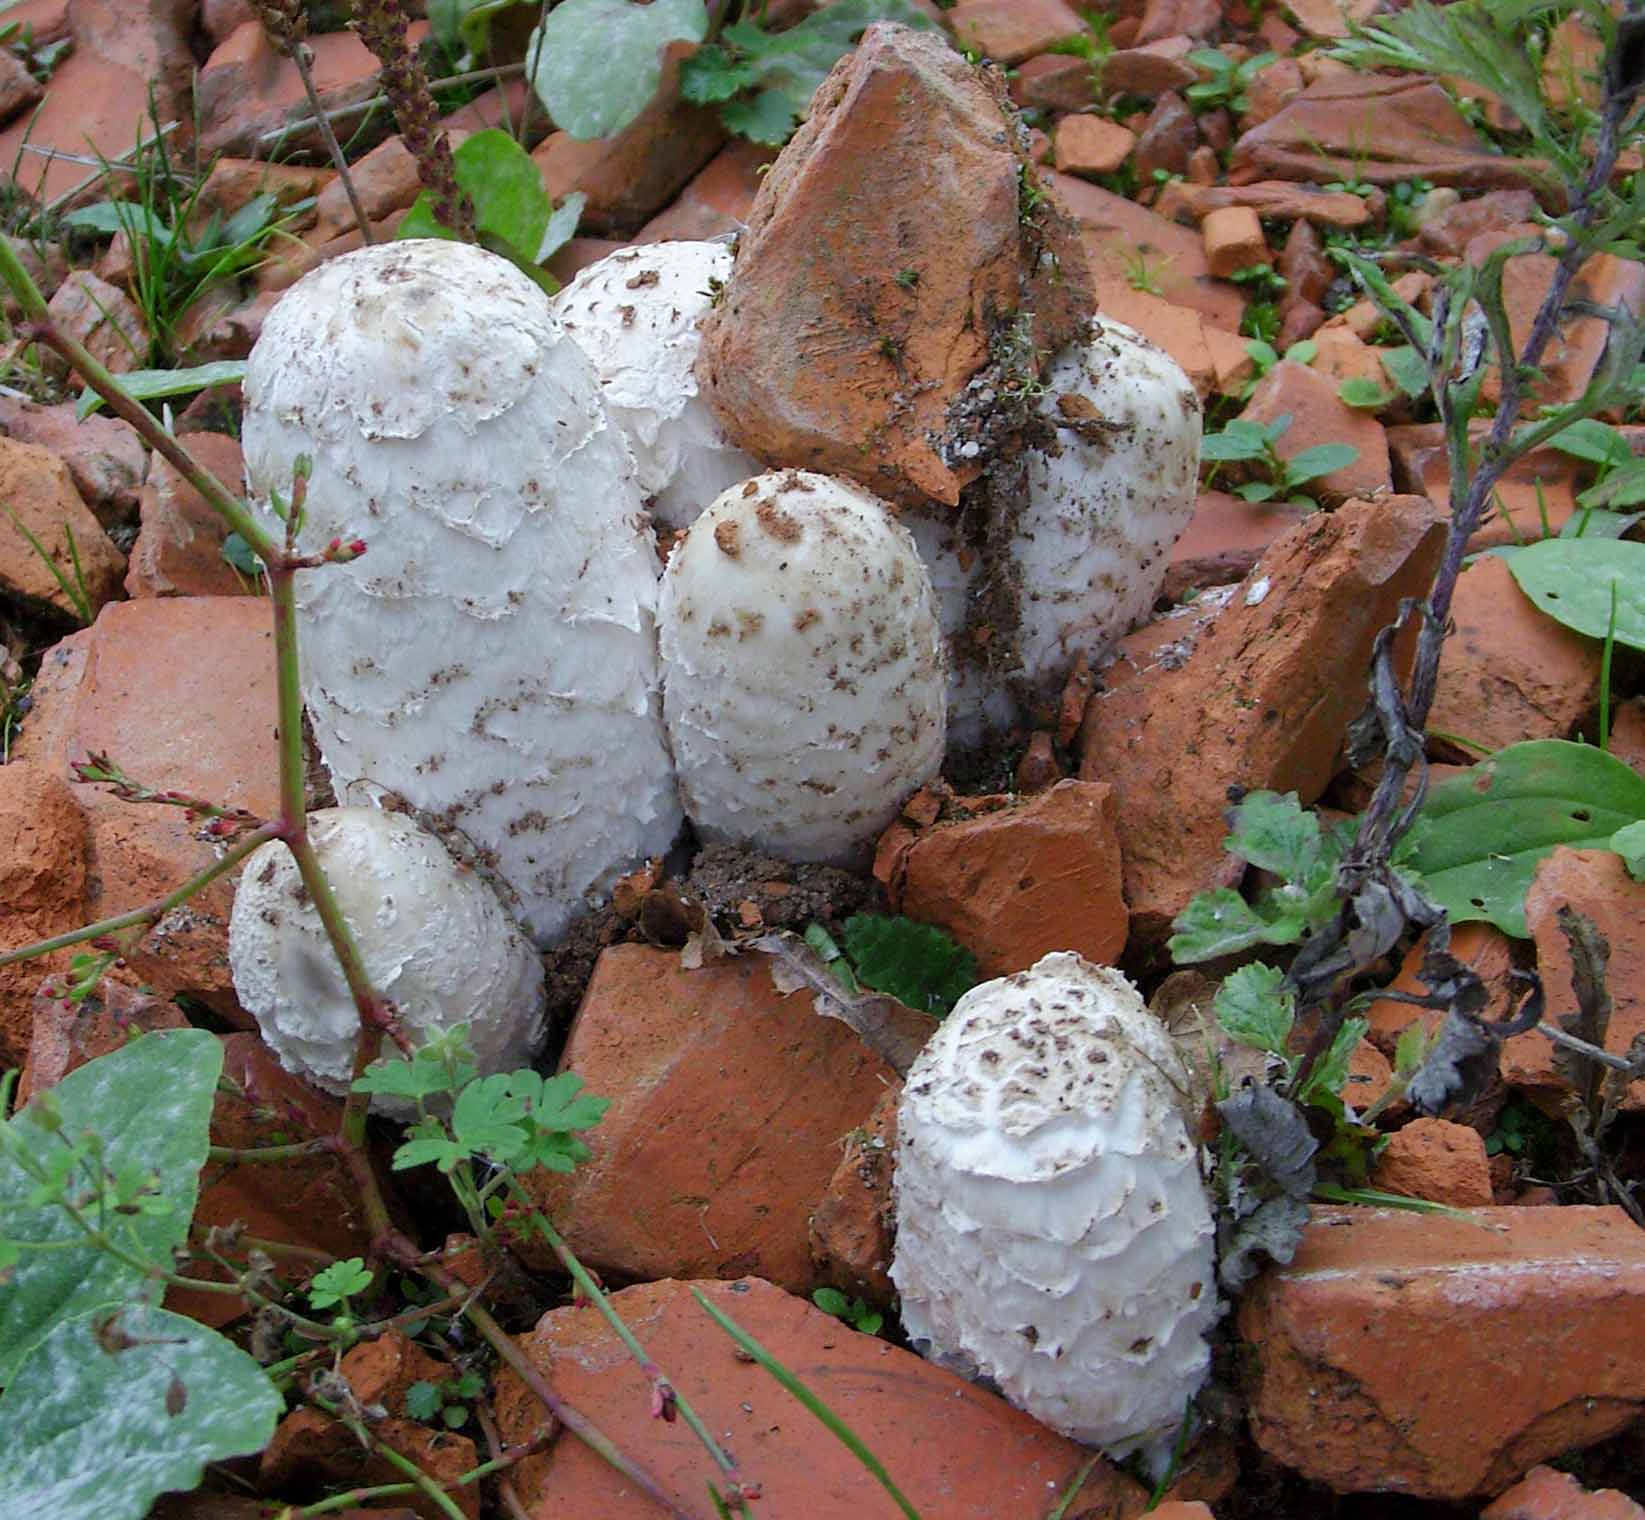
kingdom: Fungi
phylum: Basidiomycota
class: Agaricomycetes
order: Agaricales
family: Agaricaceae
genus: Coprinus
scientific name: Coprinus comatus
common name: stor parykhat
